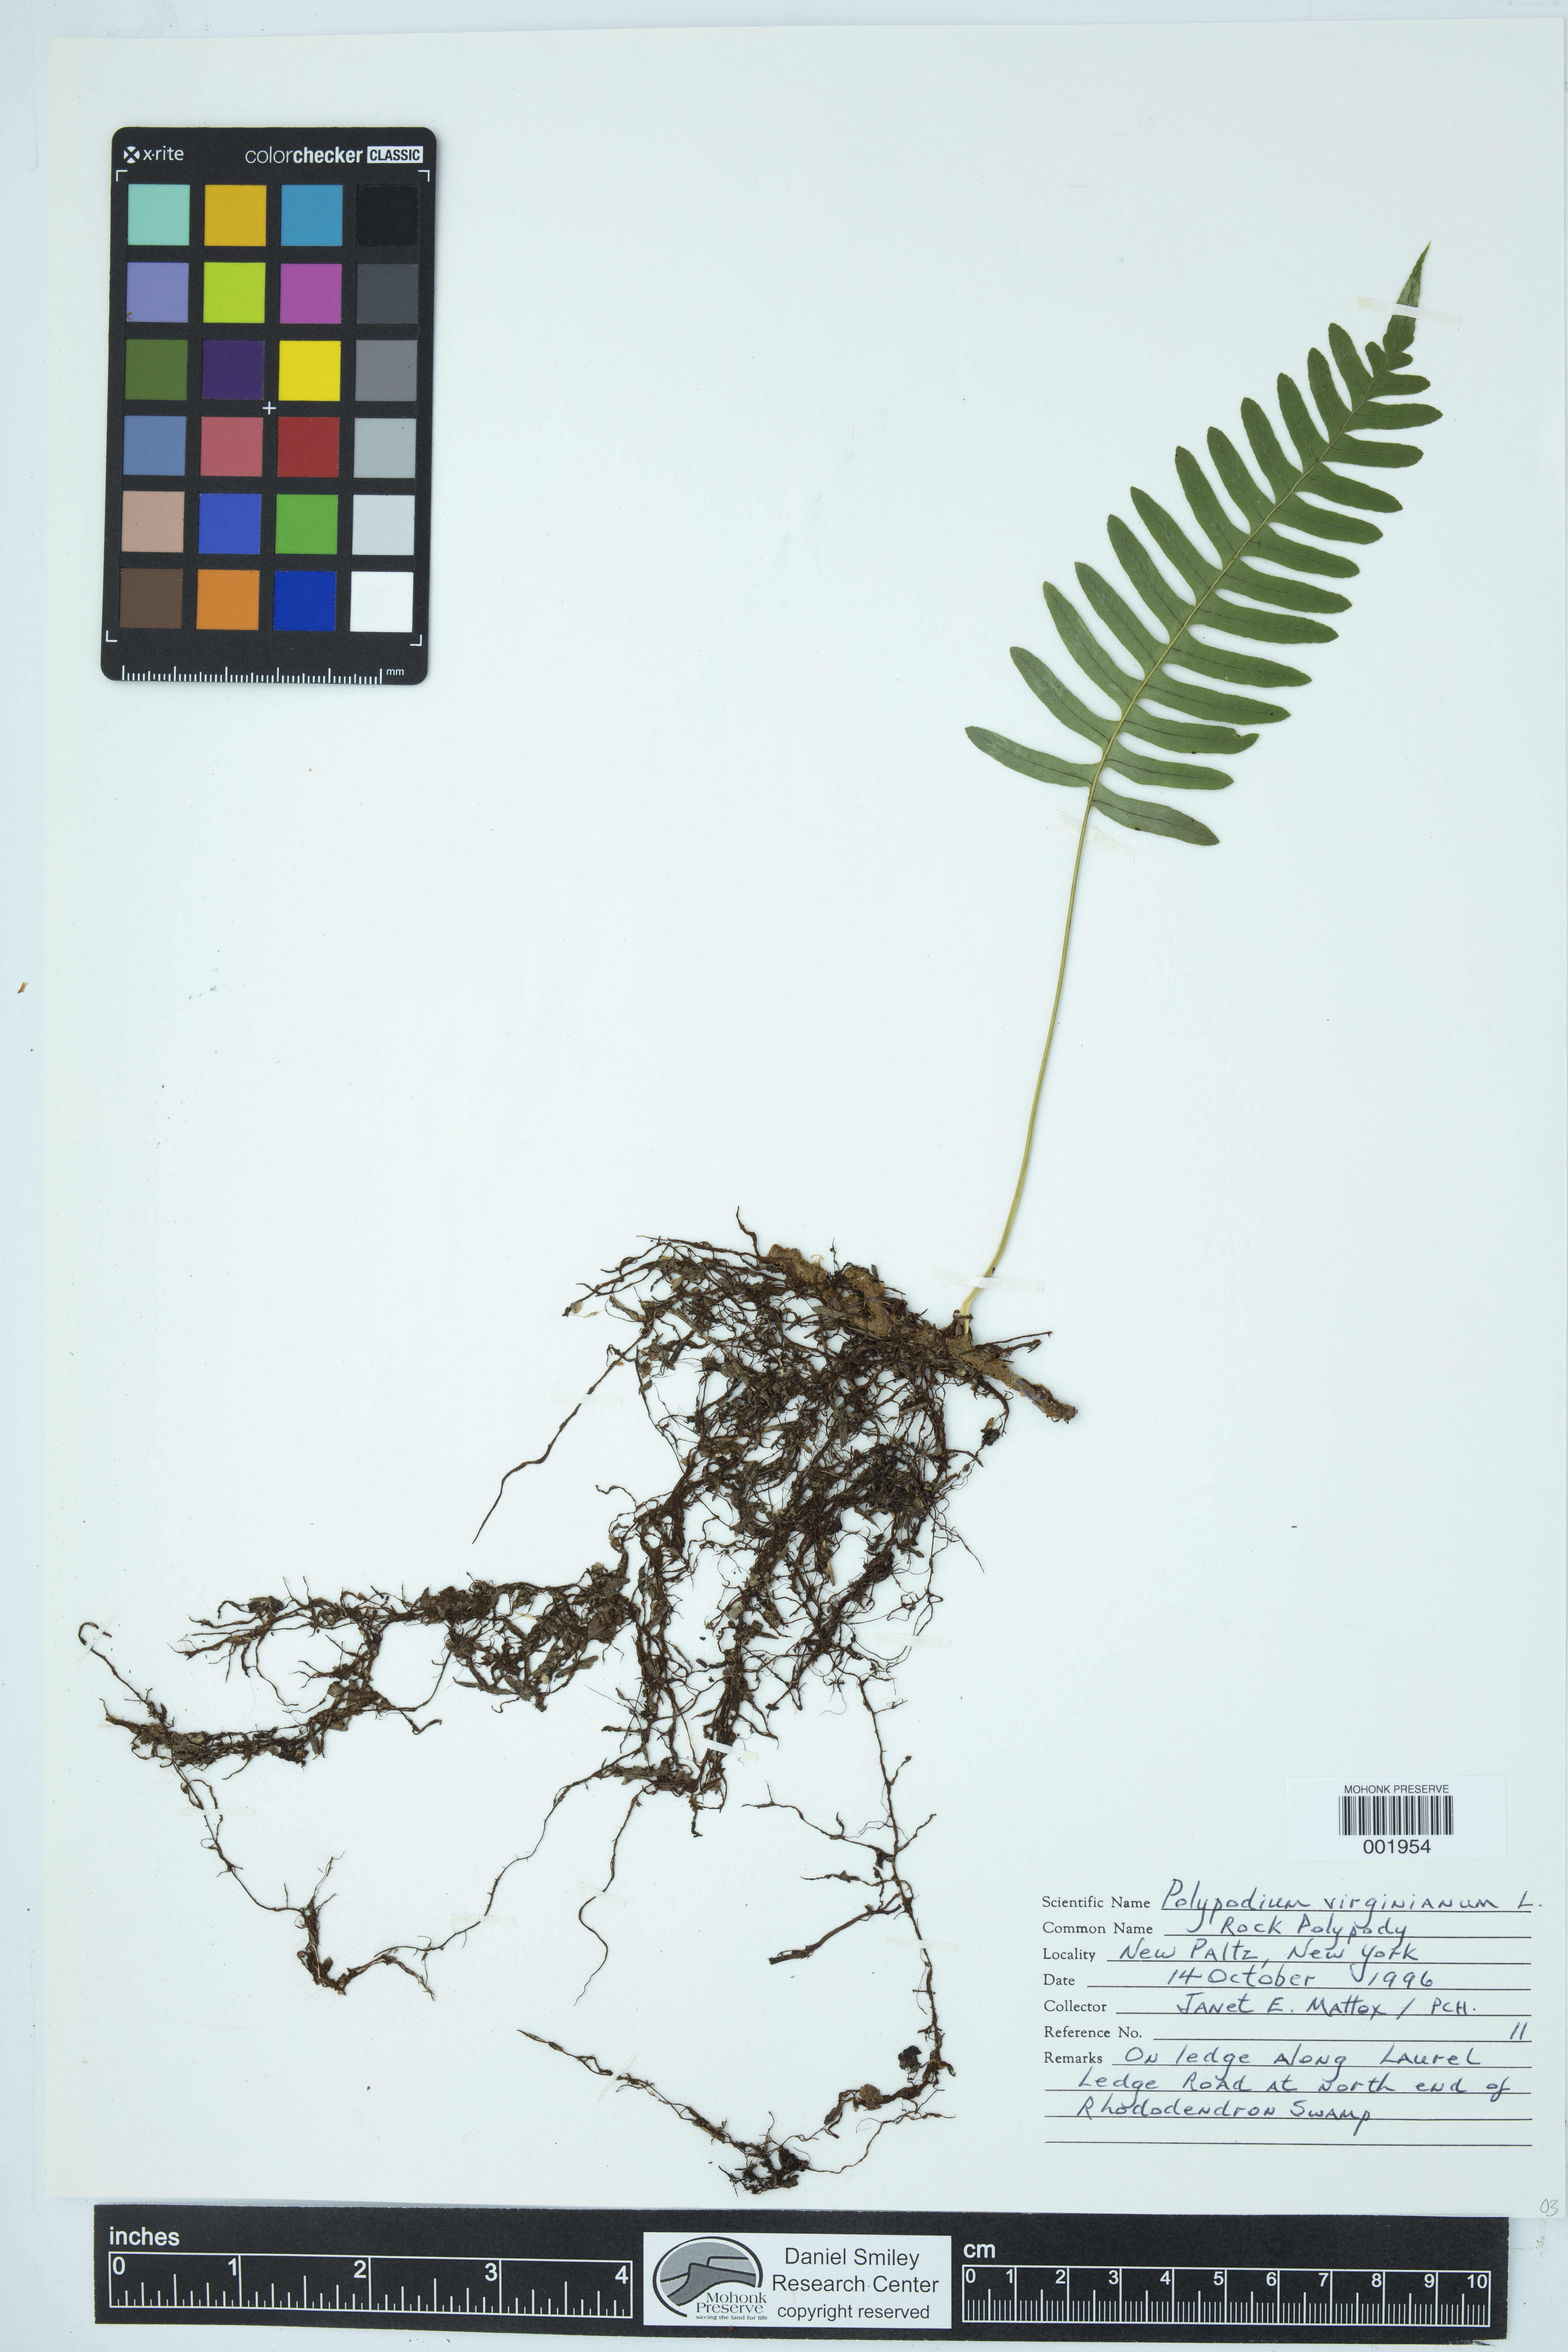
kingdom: Plantae
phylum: Tracheophyta
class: Polypodiopsida
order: Polypodiales
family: Polypodiaceae
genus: Polypodium
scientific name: Polypodium virginianum
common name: American wall fern
